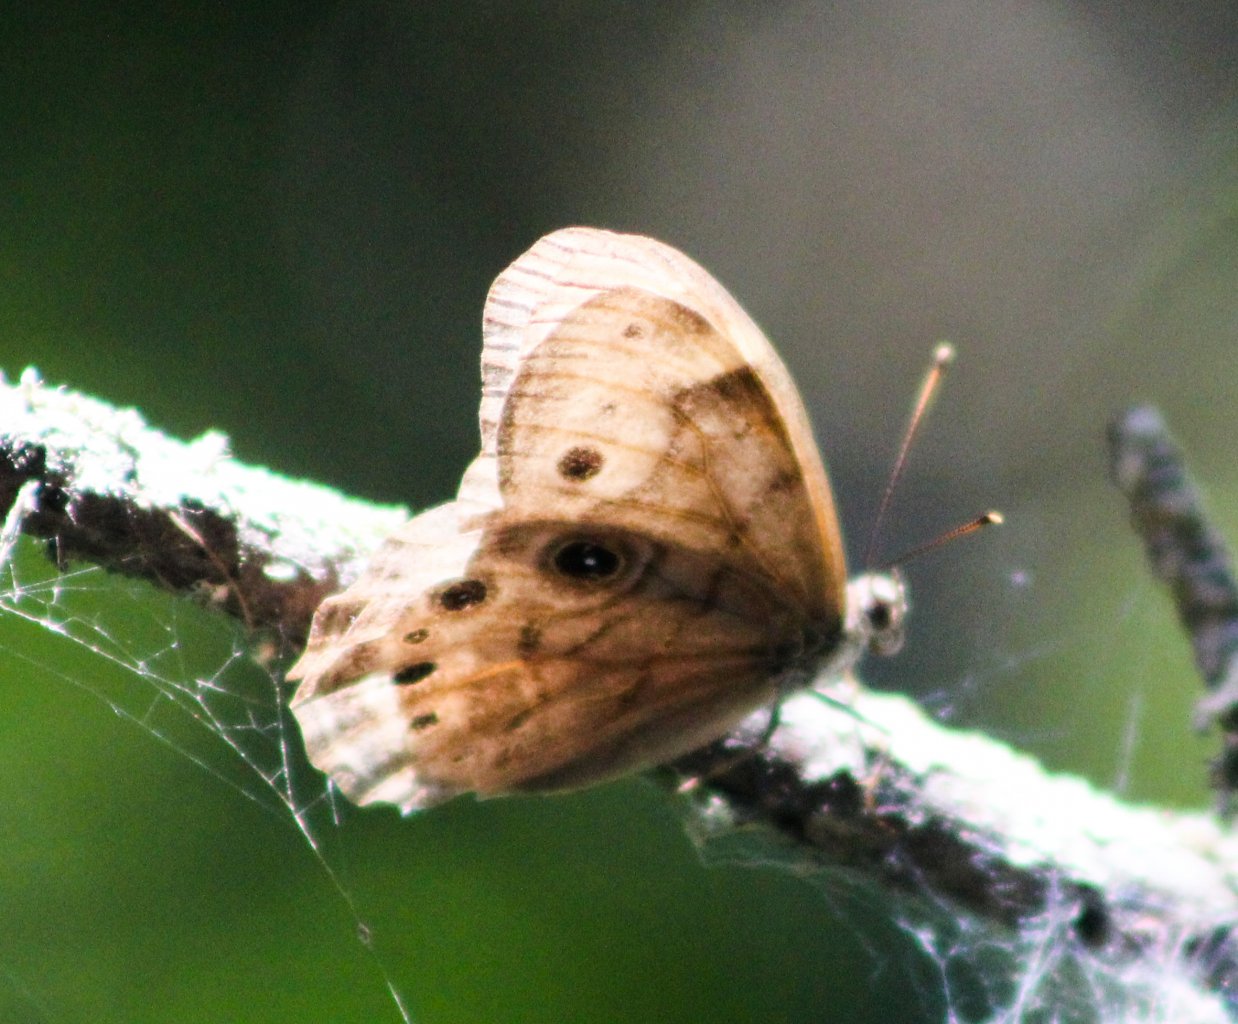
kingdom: Animalia
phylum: Arthropoda
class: Insecta
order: Lepidoptera
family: Nymphalidae
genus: Lethe
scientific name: Lethe anthedon
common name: Northern Pearly-Eye
